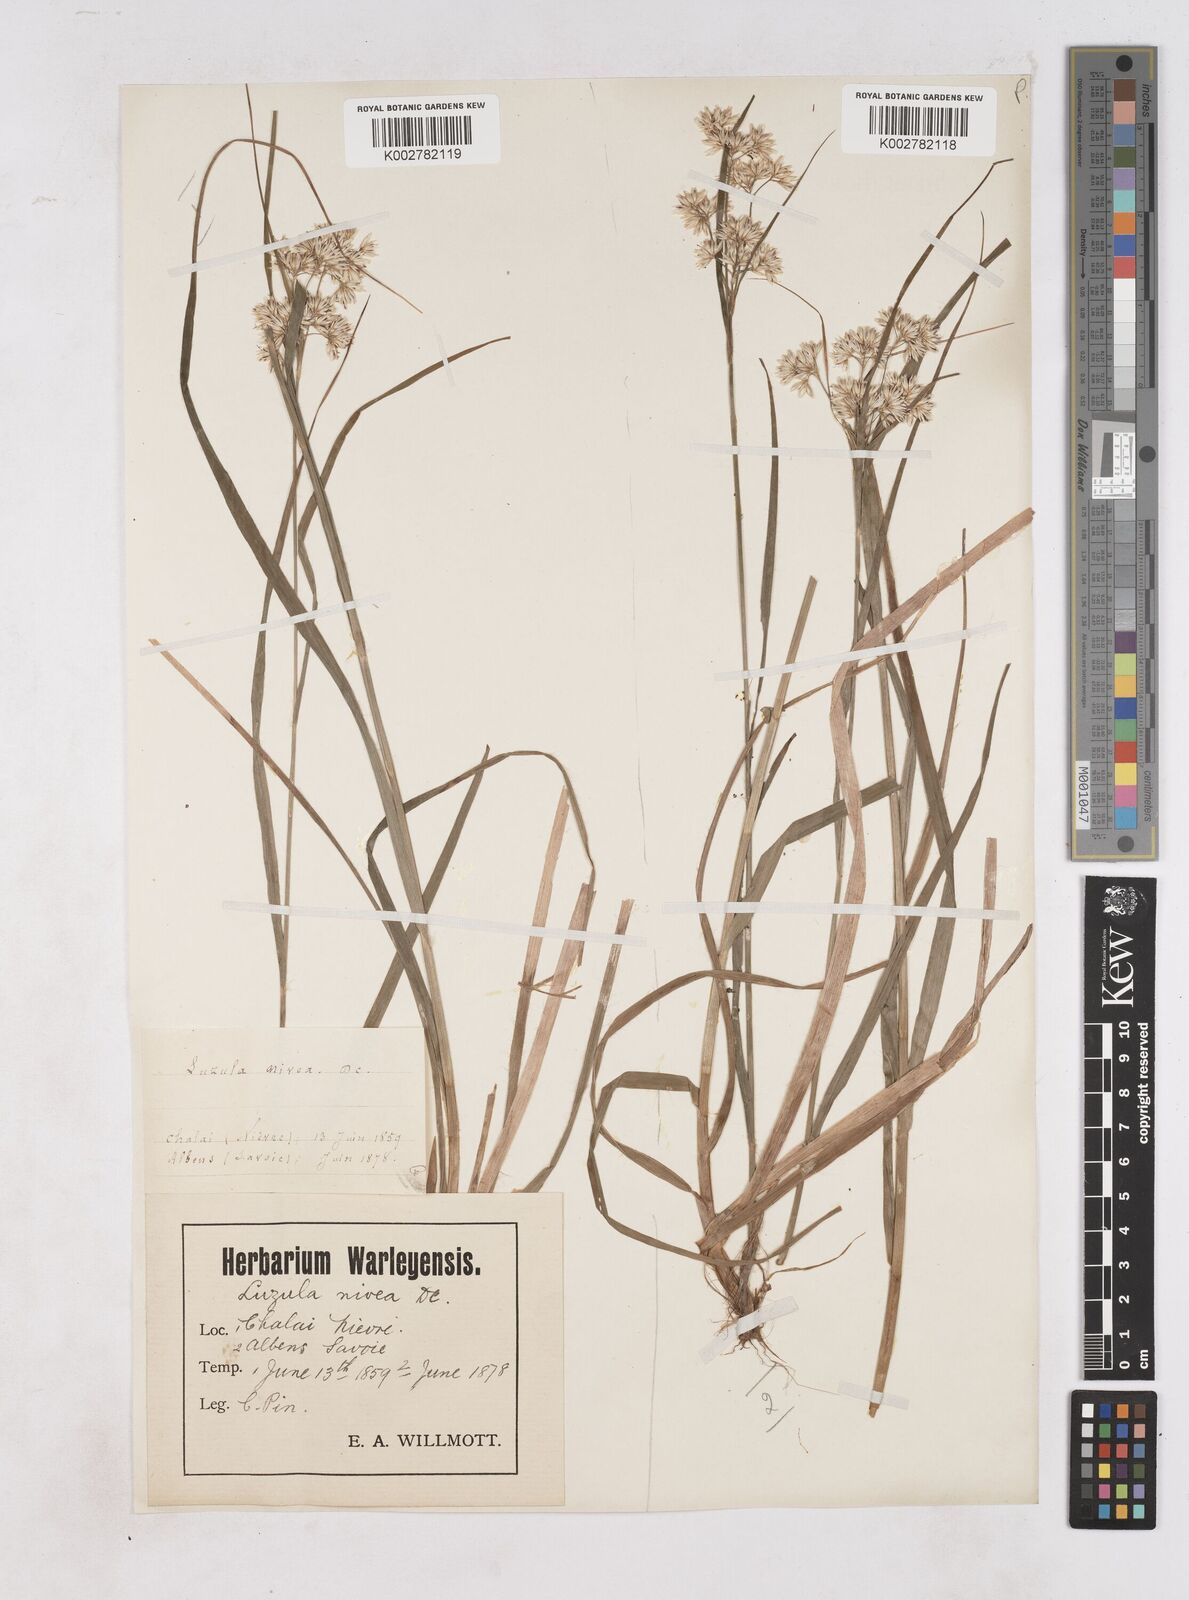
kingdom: Plantae
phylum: Tracheophyta
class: Liliopsida
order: Poales
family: Juncaceae
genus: Luzula
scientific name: Luzula nivea
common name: Snow-white wood-rush
